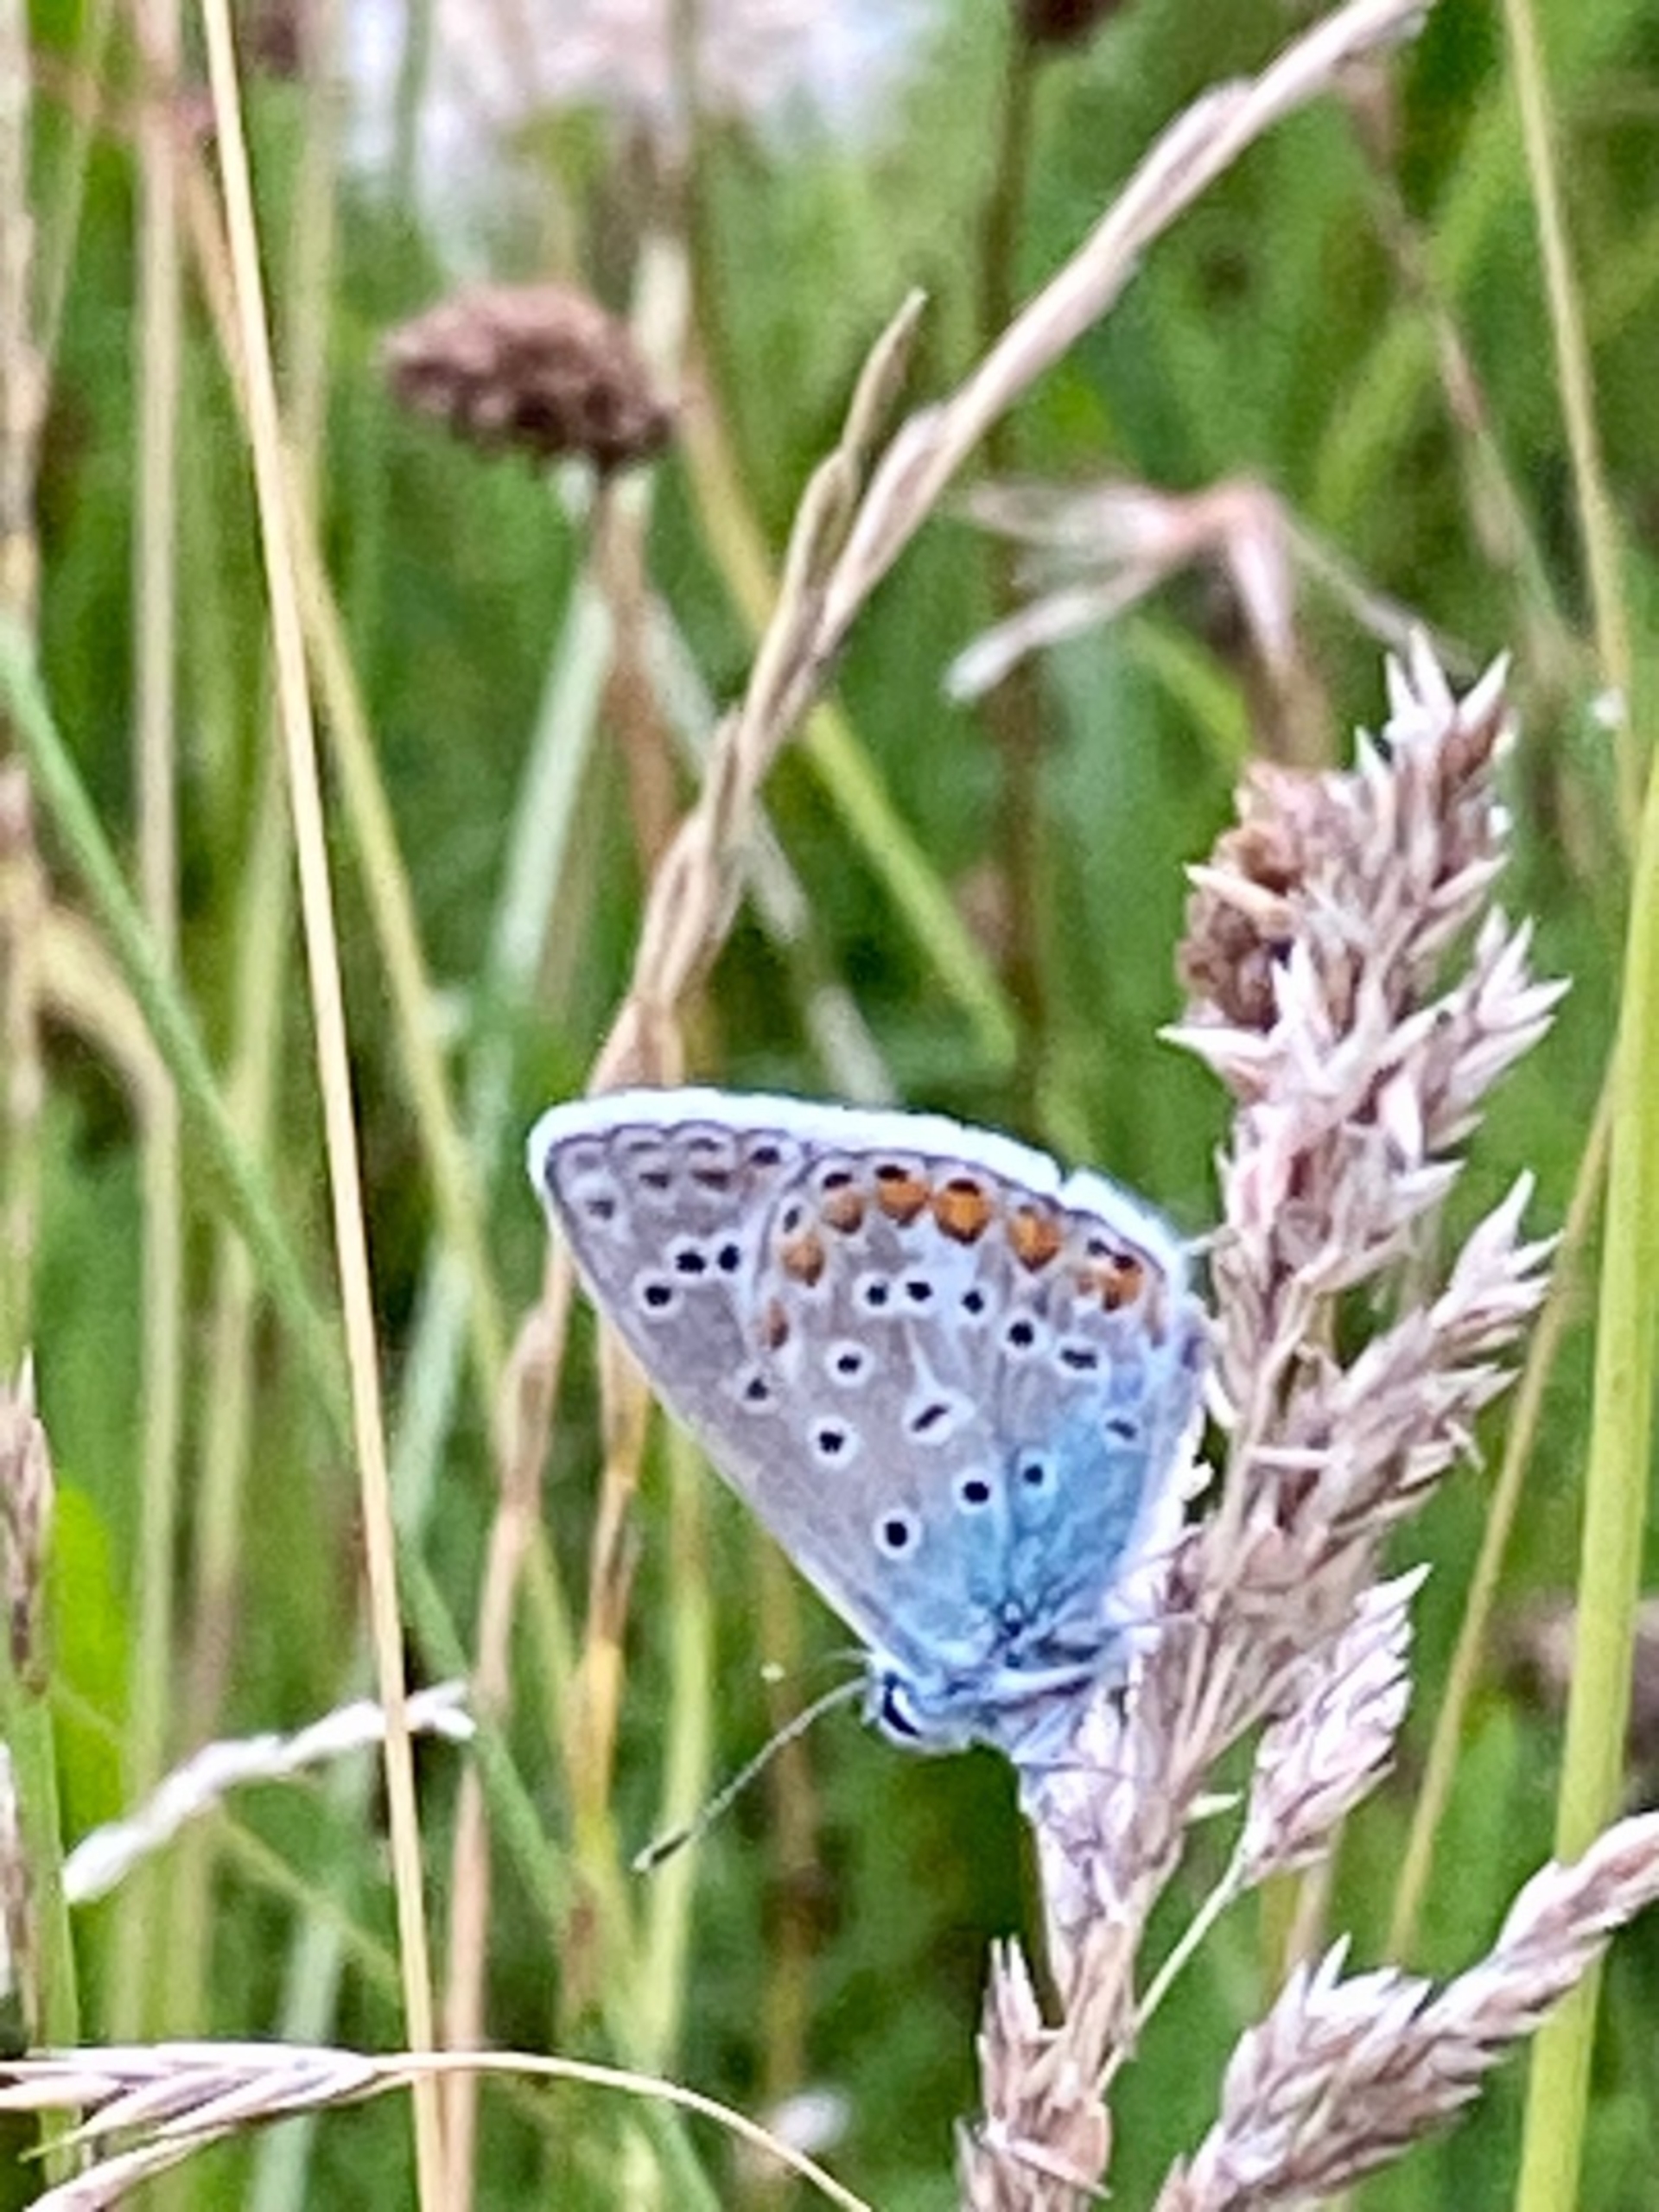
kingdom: Animalia
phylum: Arthropoda
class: Insecta
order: Lepidoptera
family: Lycaenidae
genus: Polyommatus
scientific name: Polyommatus icarus
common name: Almindelig blåfugl
